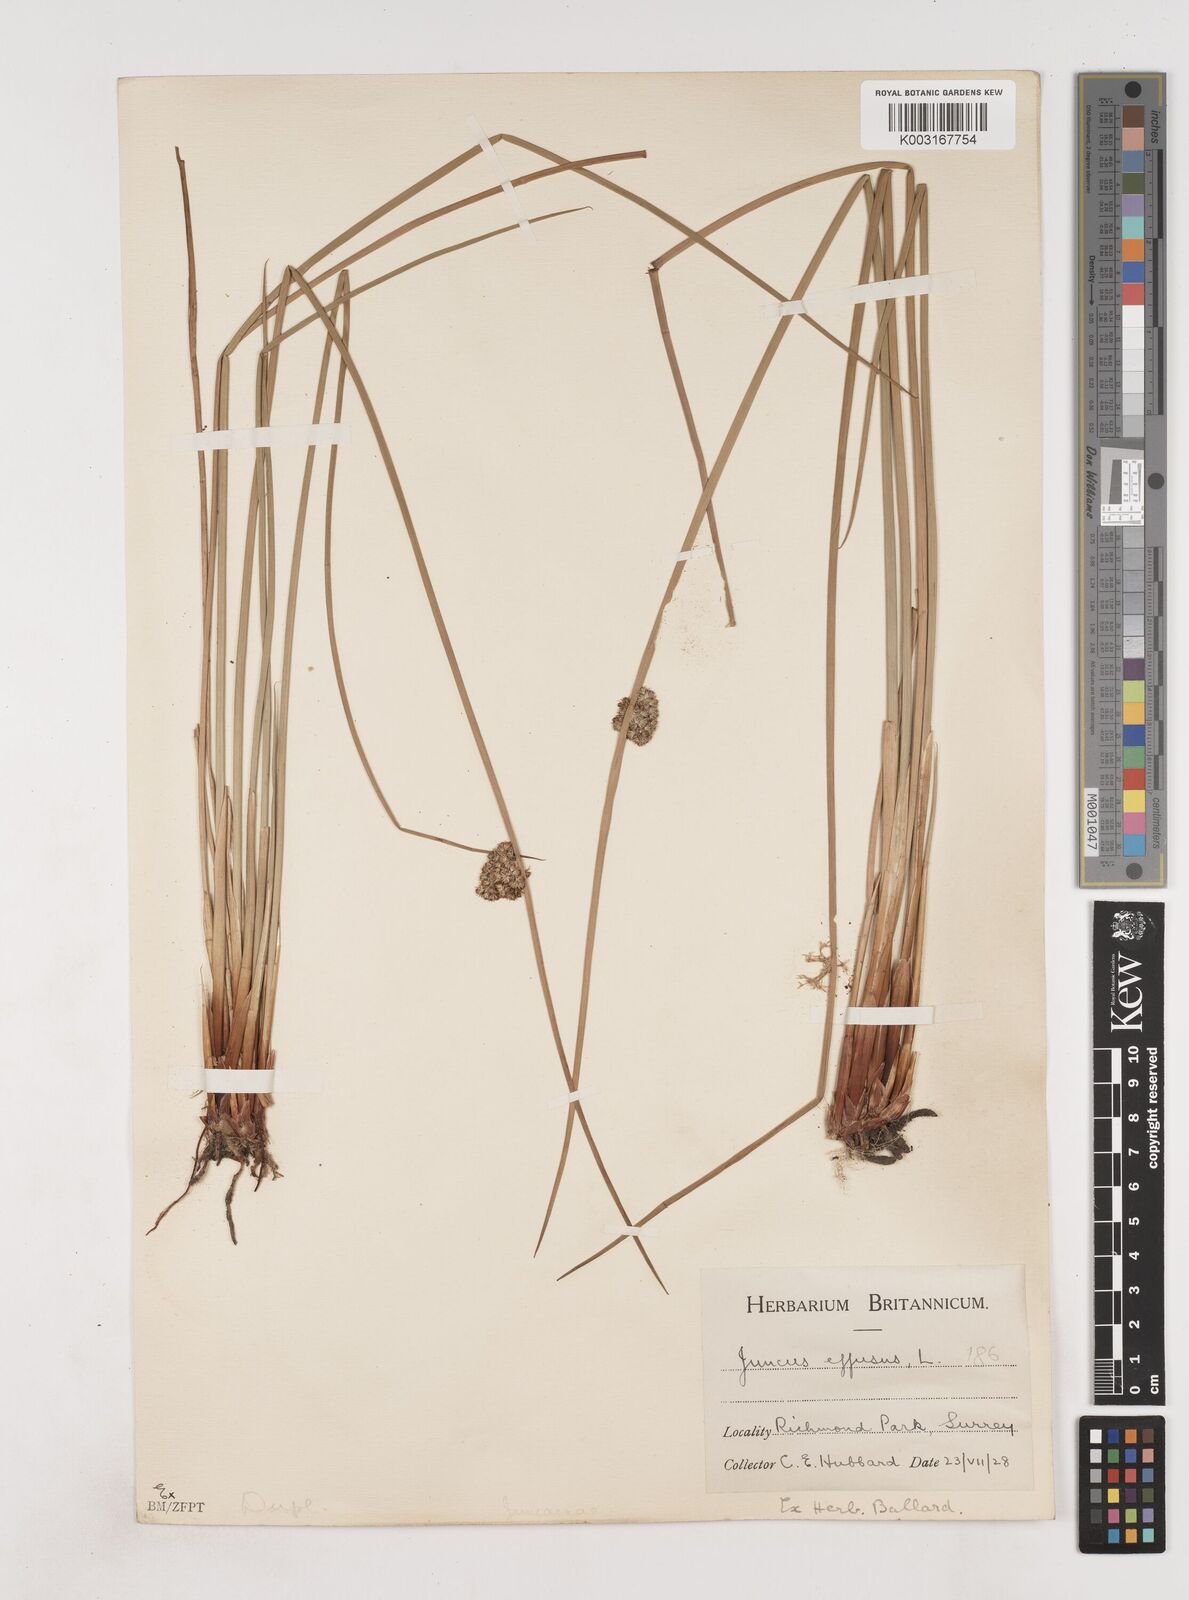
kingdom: Plantae
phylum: Tracheophyta
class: Liliopsida
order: Poales
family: Juncaceae
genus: Juncus
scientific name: Juncus effusus
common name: Soft rush
